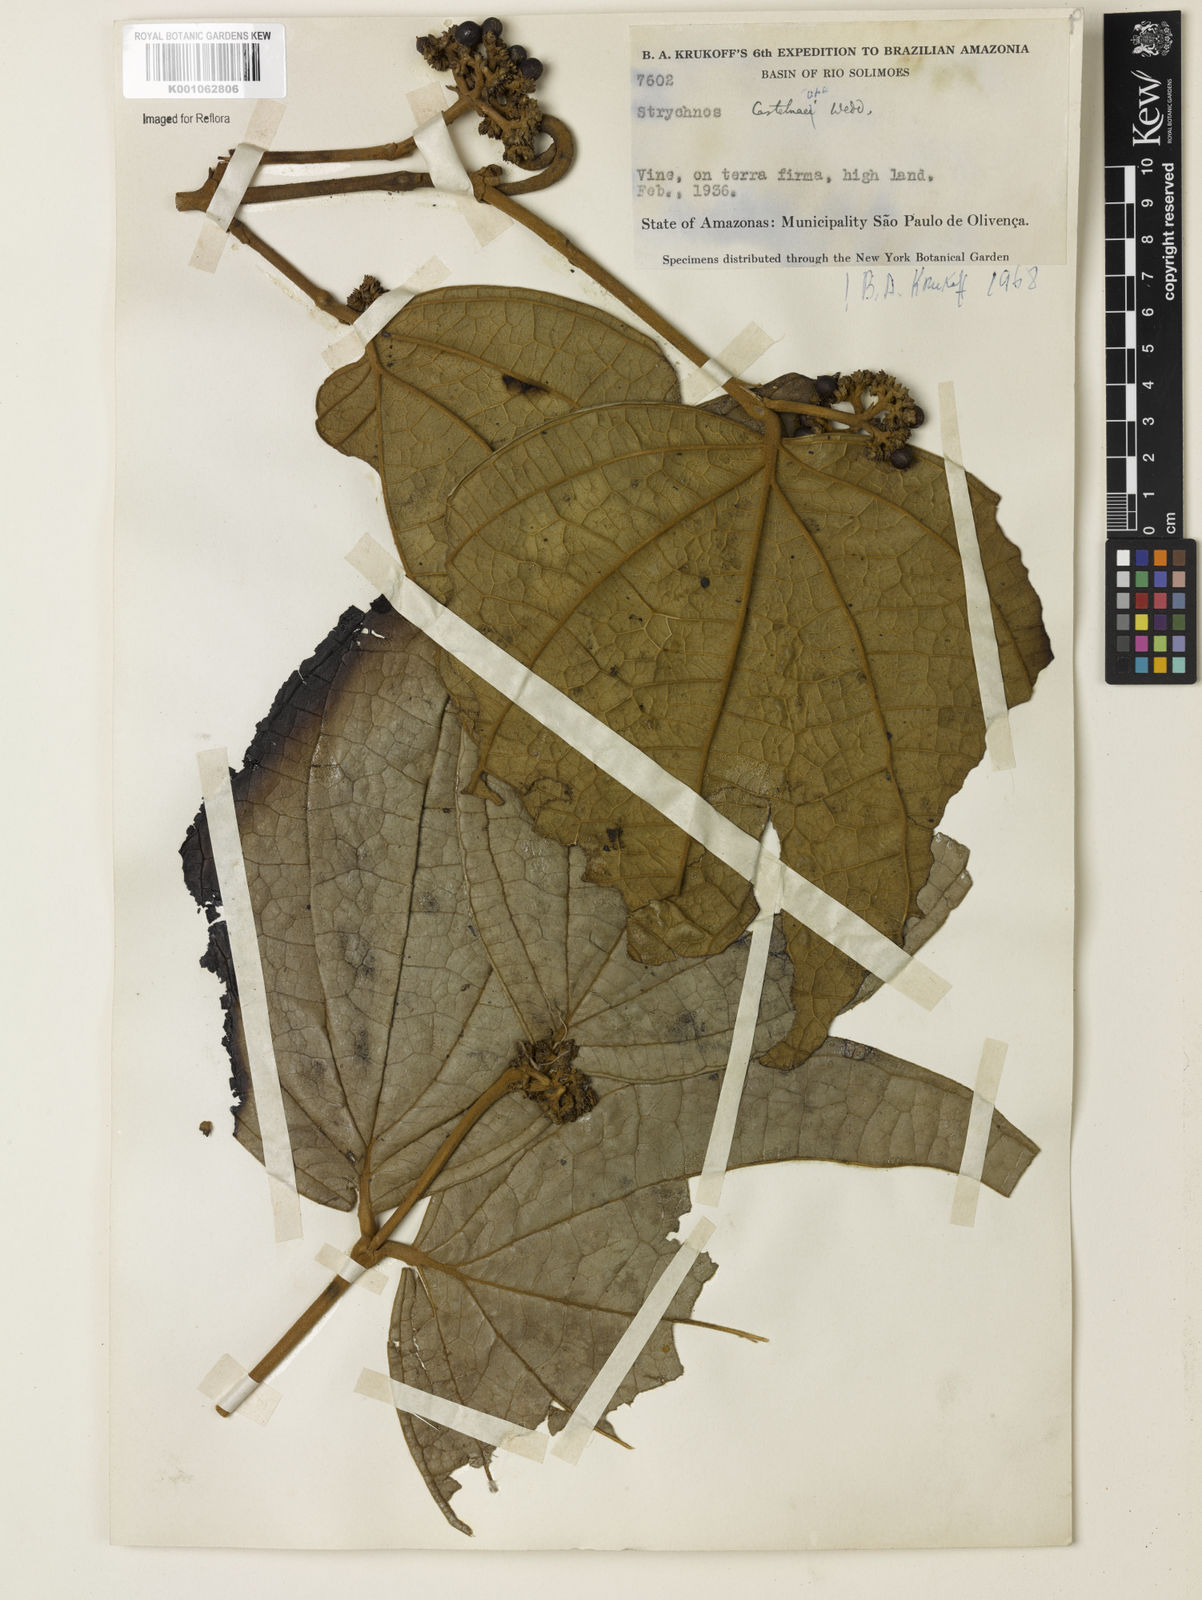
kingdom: Plantae
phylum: Tracheophyta
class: Magnoliopsida
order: Gentianales
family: Loganiaceae
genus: Strychnos
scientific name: Strychnos
